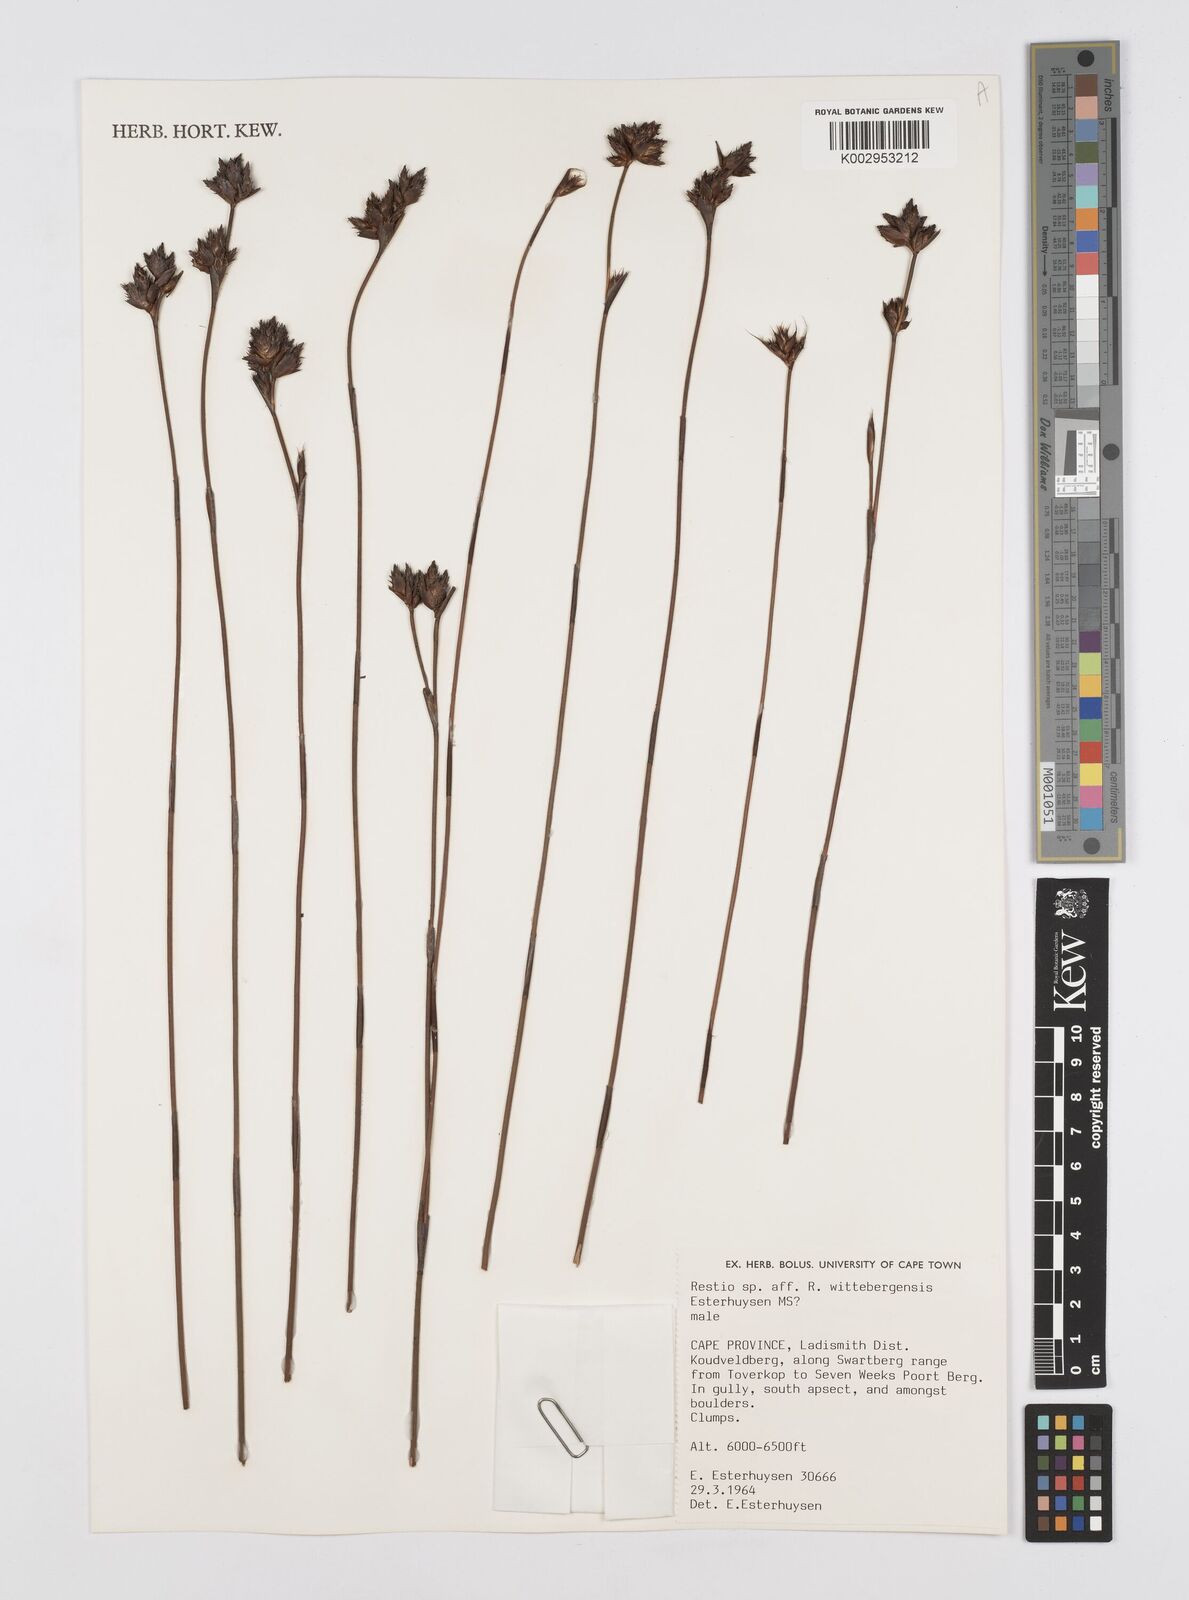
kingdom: Plantae
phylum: Tracheophyta
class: Liliopsida
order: Poales
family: Restionaceae
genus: Restio
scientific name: Restio
